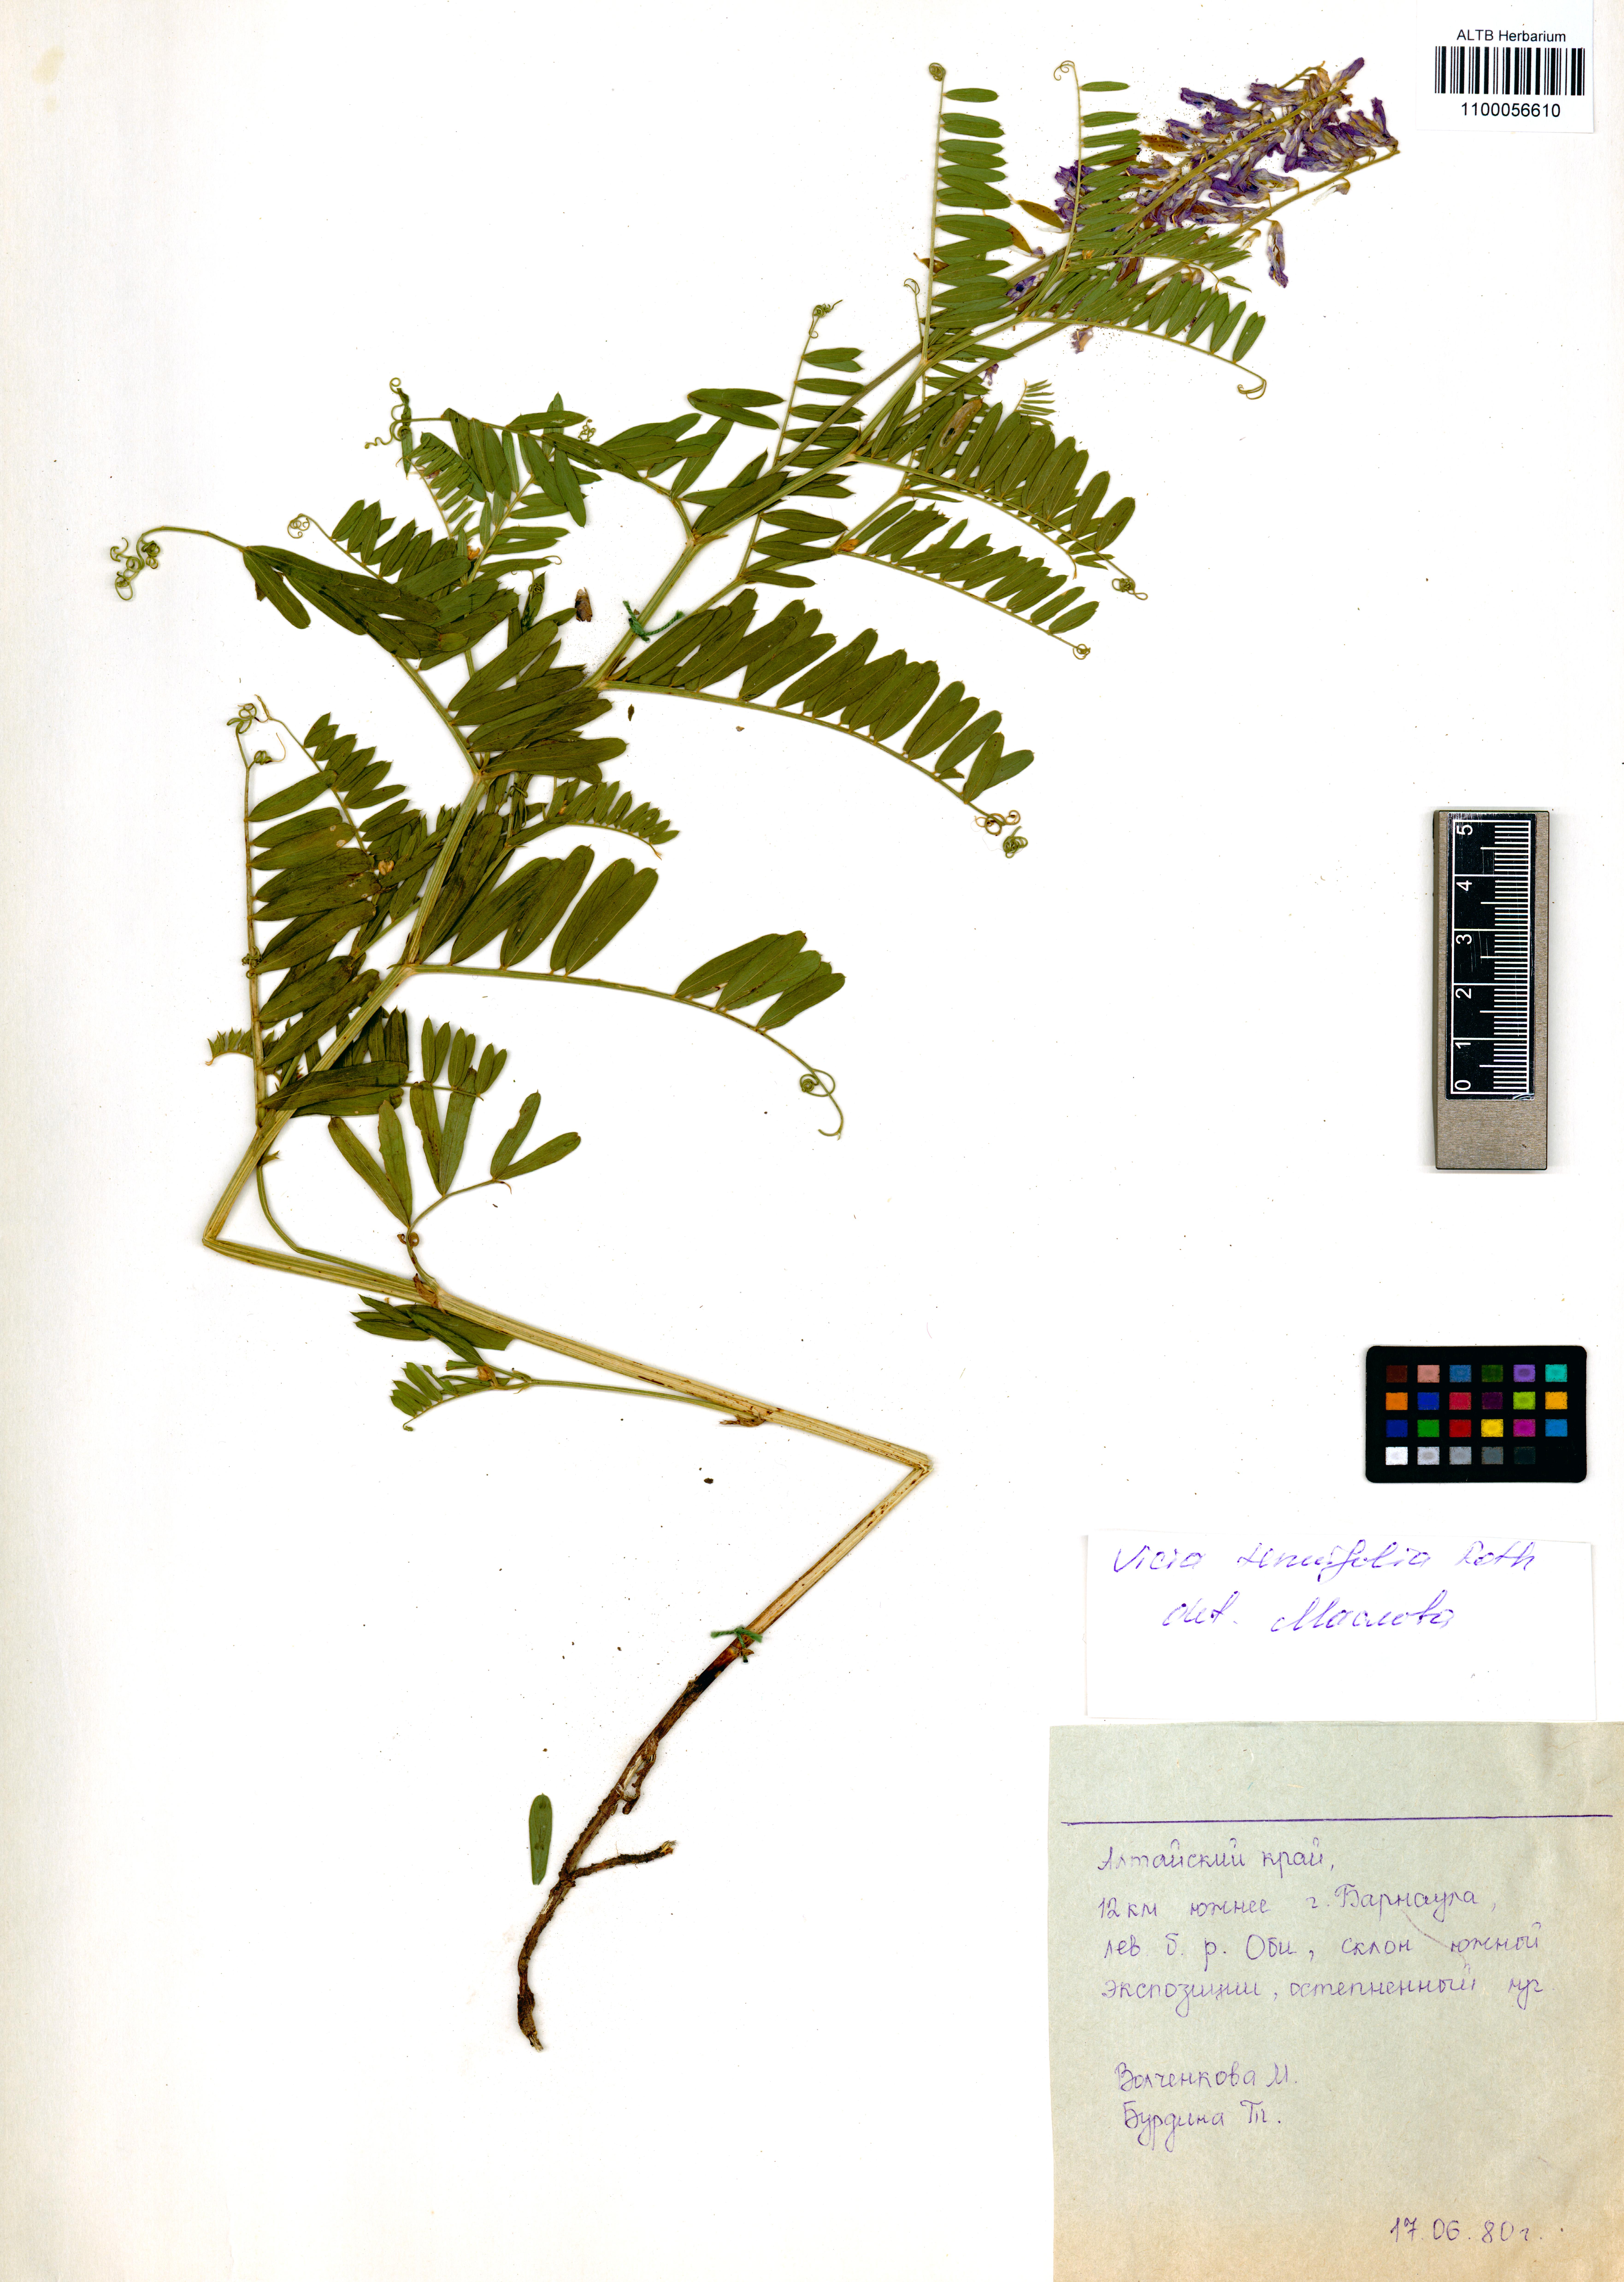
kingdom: Plantae
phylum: Tracheophyta
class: Magnoliopsida
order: Fabales
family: Fabaceae
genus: Vicia
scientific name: Vicia tenuifolia
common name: Fine-leaved vetch
